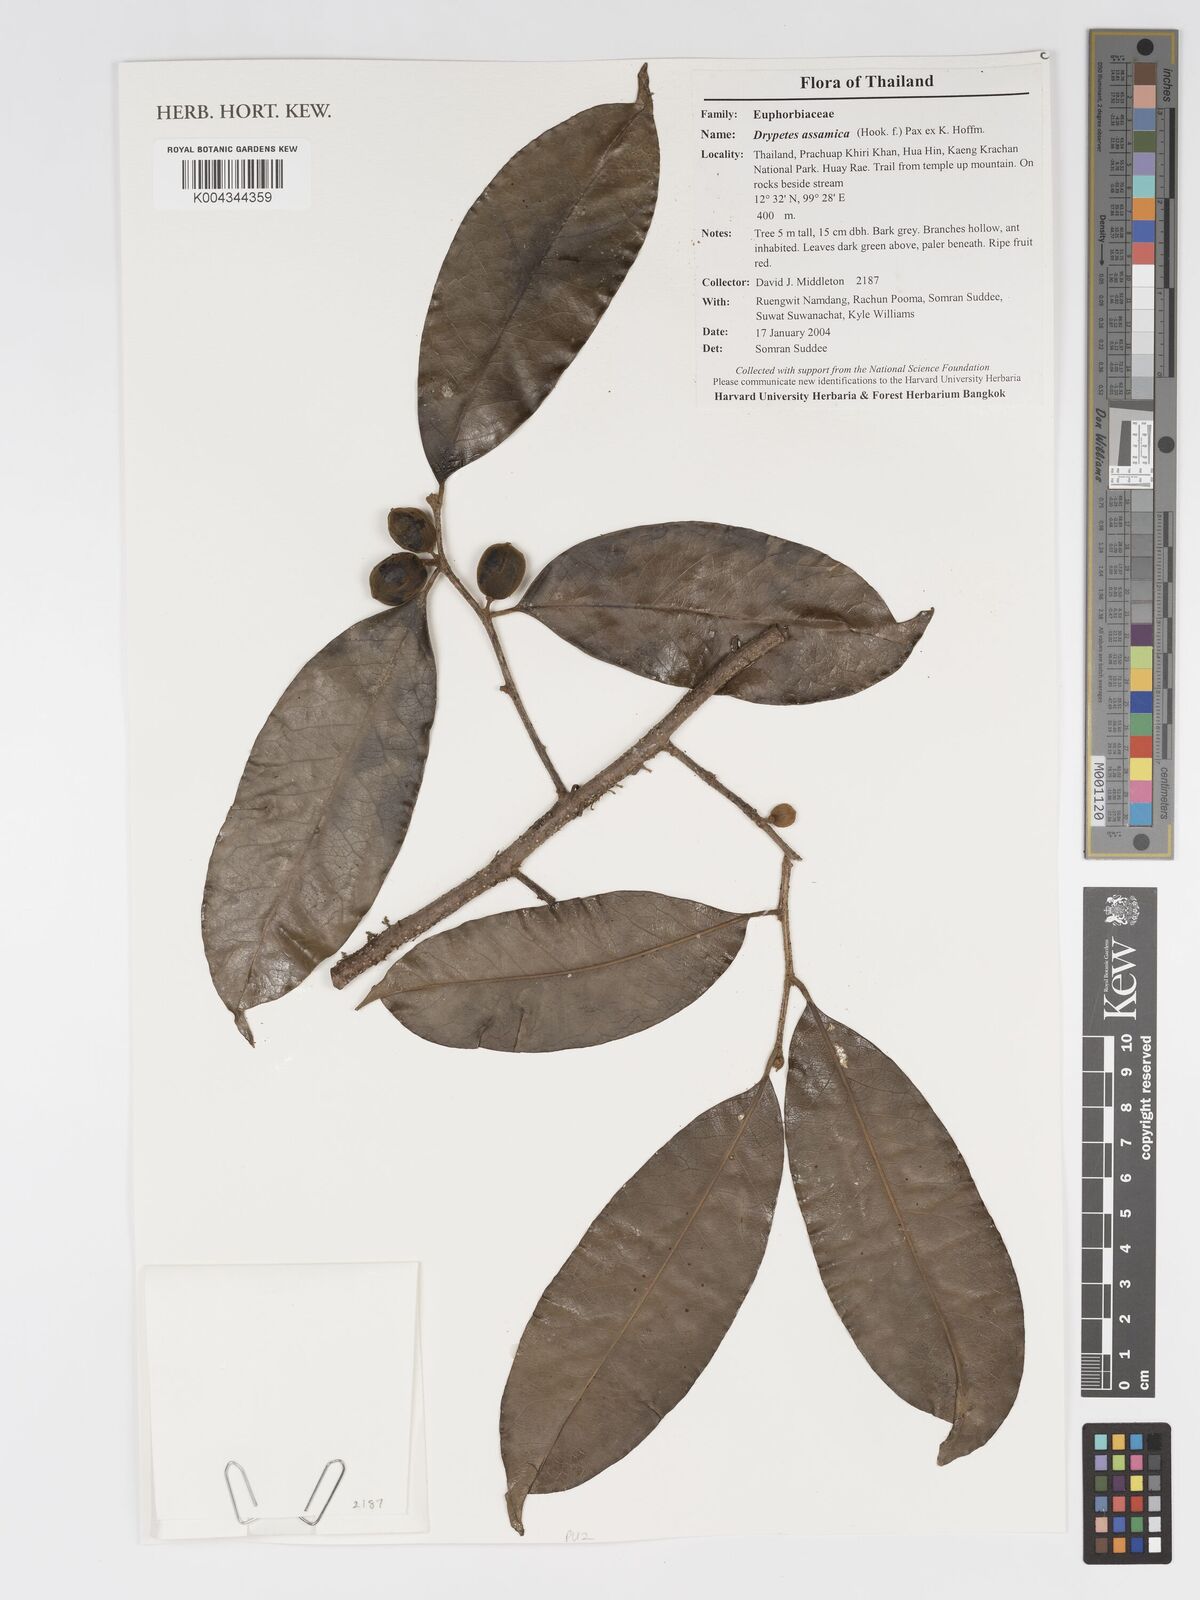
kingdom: Plantae
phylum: Tracheophyta
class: Magnoliopsida
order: Malpighiales
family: Putranjivaceae
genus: Drypetes
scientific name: Drypetes assamica
